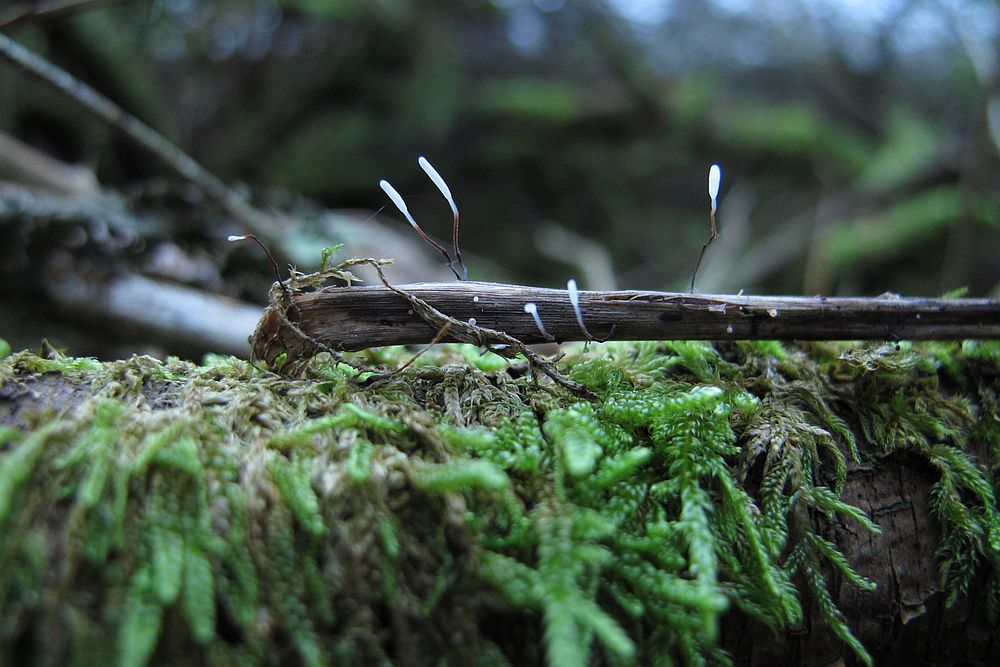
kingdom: Fungi
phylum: Basidiomycota
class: Agaricomycetes
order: Agaricales
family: Typhulaceae
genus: Typhula
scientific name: Typhula erythropus
